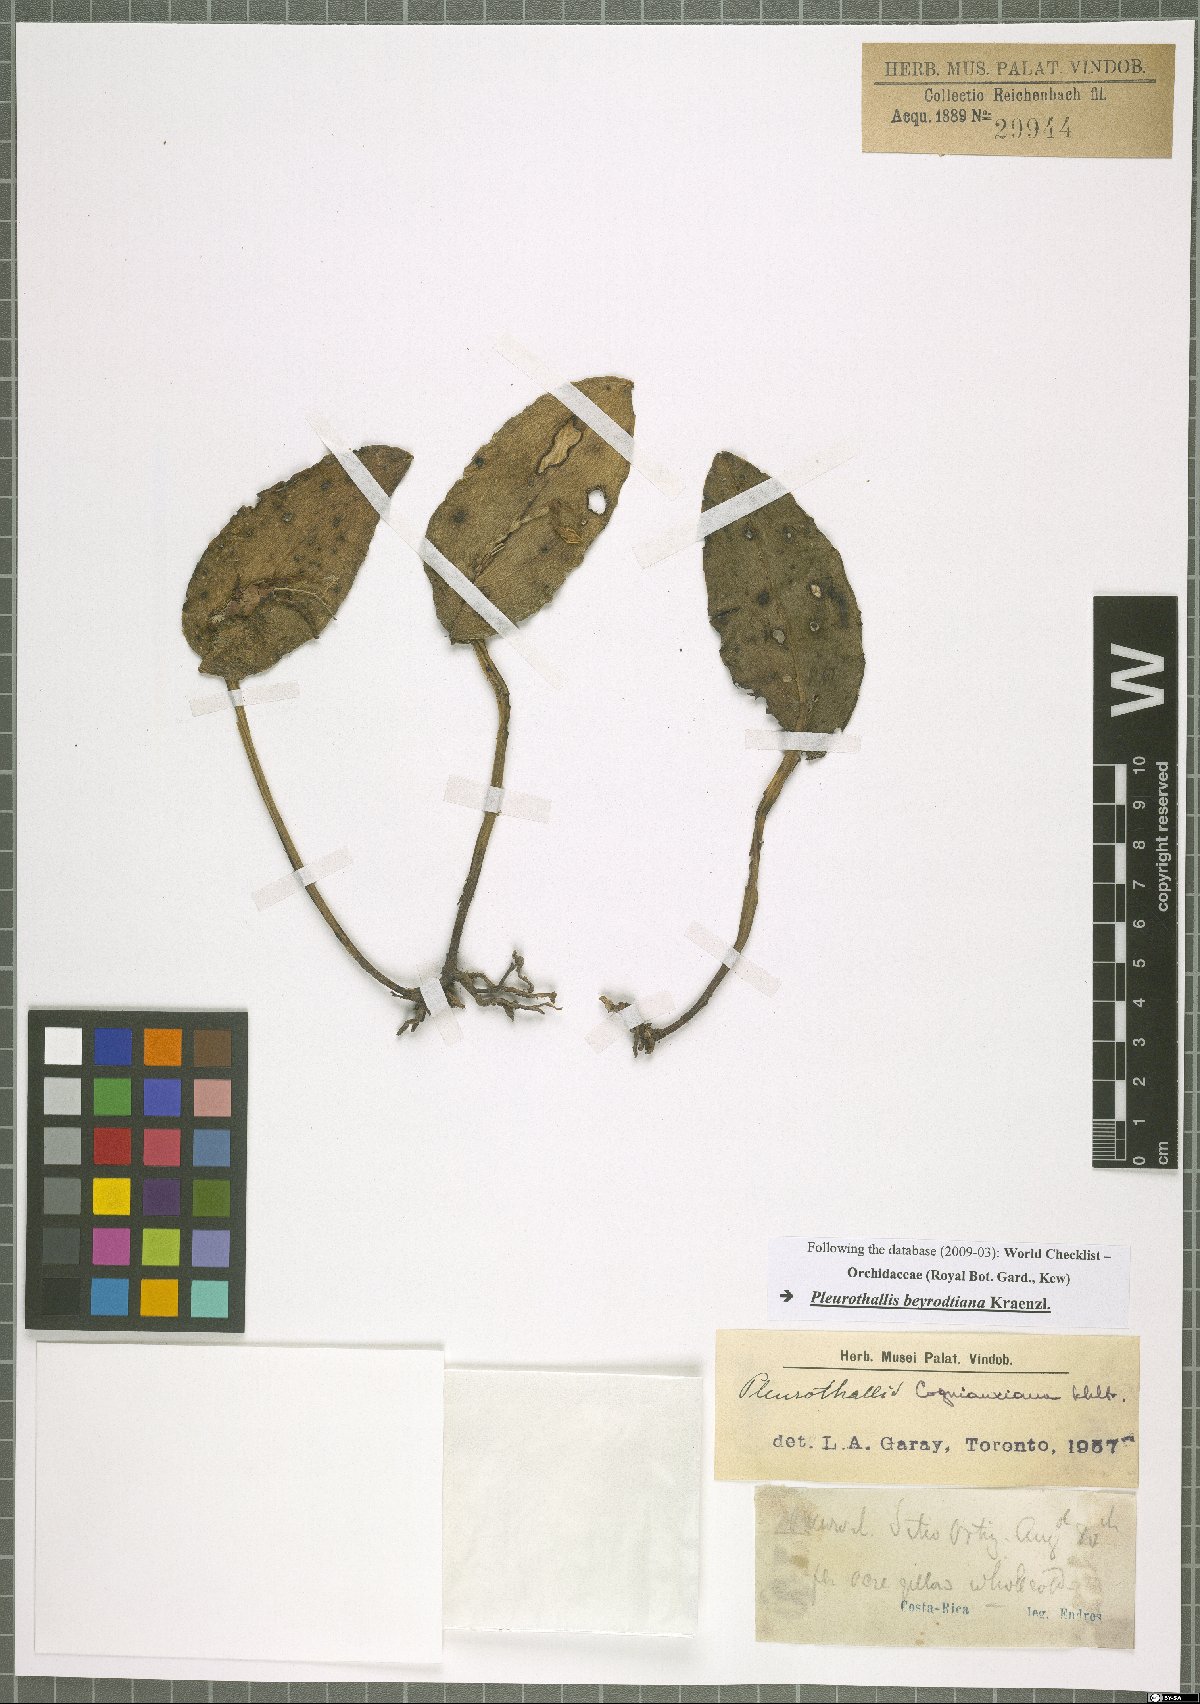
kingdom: Plantae
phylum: Tracheophyta
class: Liliopsida
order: Asparagales
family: Orchidaceae
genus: Acianthera
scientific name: Acianthera beyrodtiana
